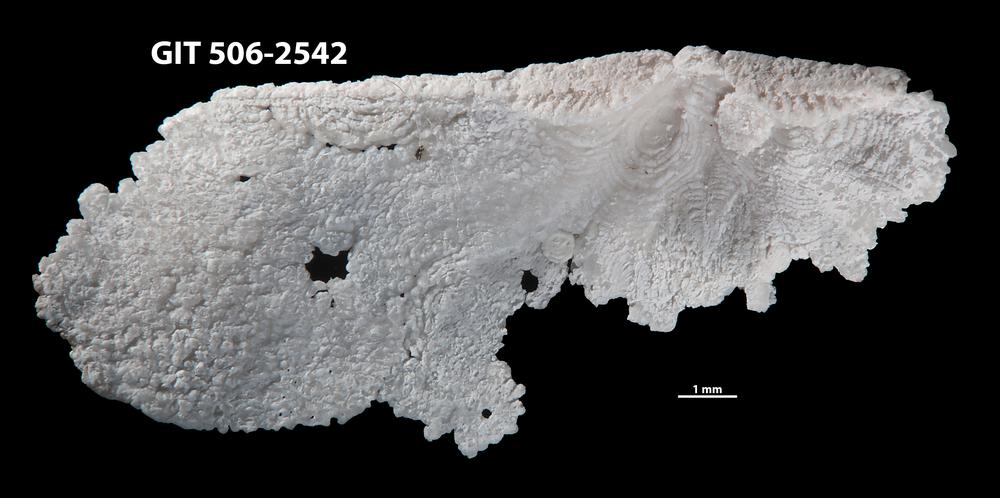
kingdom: Animalia
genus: Eostropheodonta
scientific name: Eostropheodonta delicata
